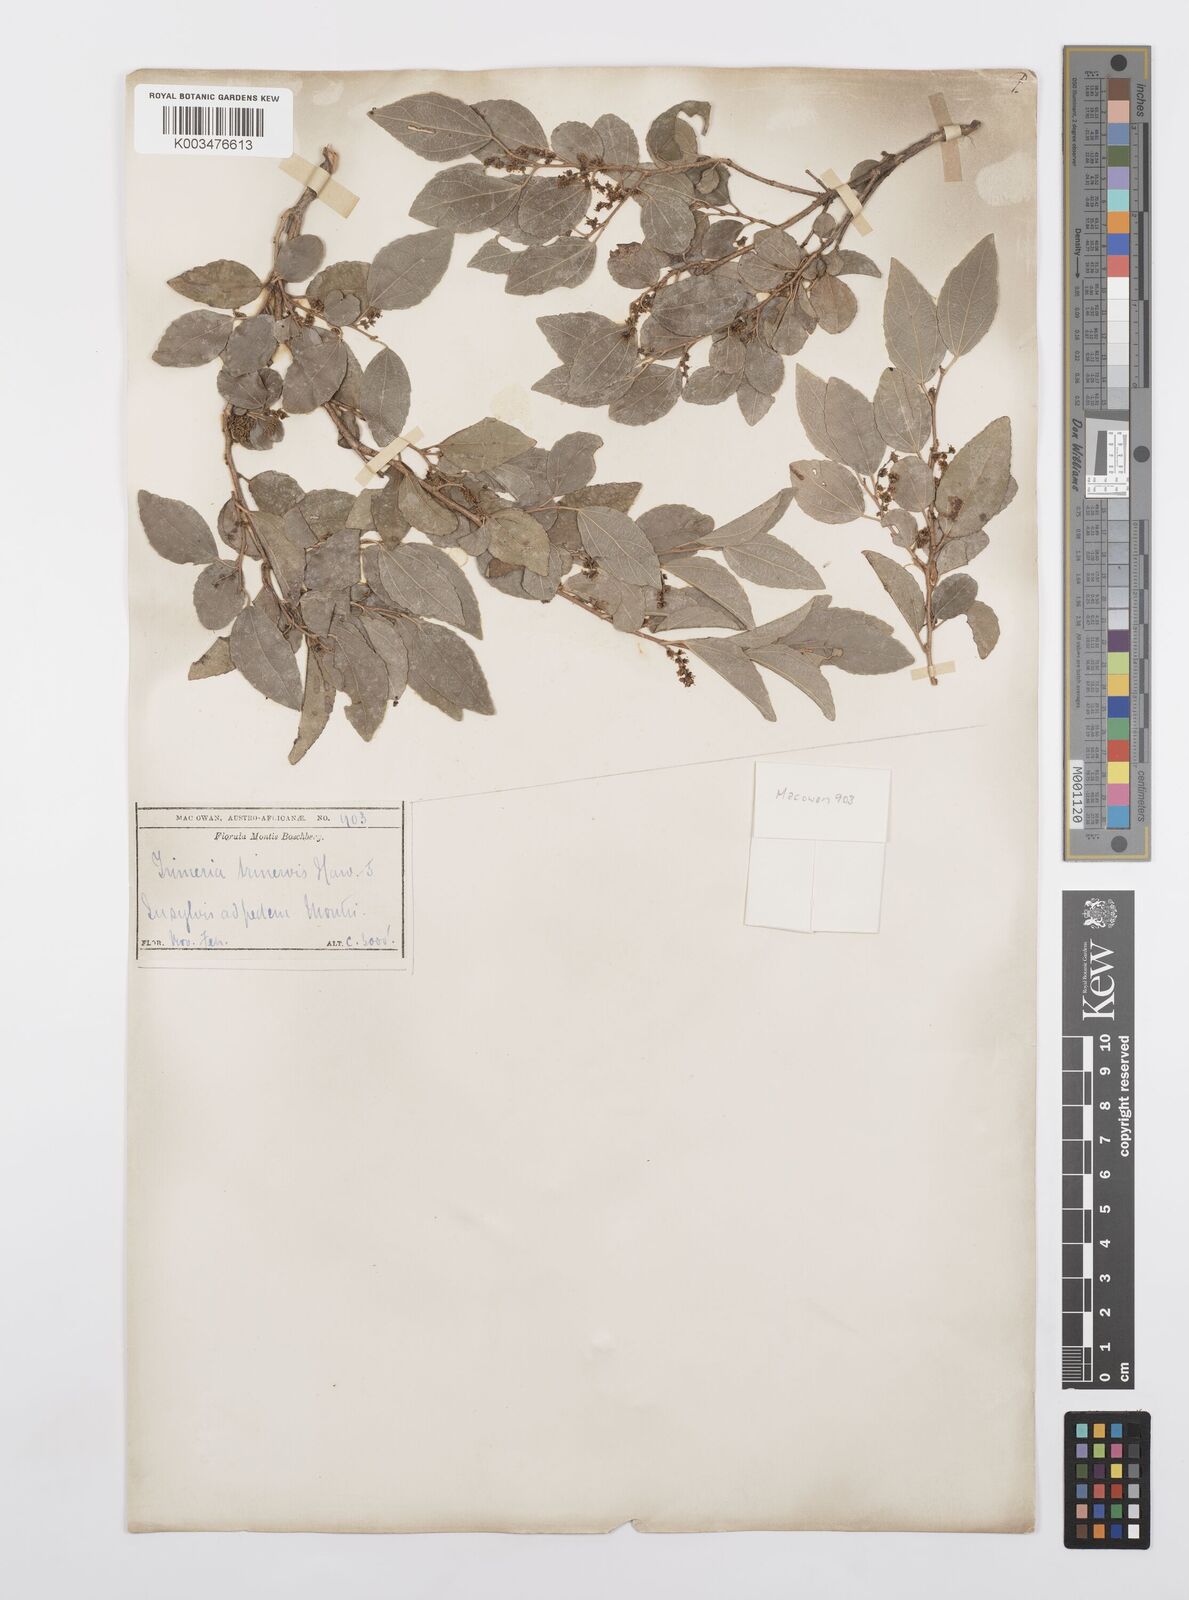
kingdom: Plantae
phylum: Tracheophyta
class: Magnoliopsida
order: Malpighiales
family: Salicaceae
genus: Trimeria
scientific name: Trimeria trinervis
